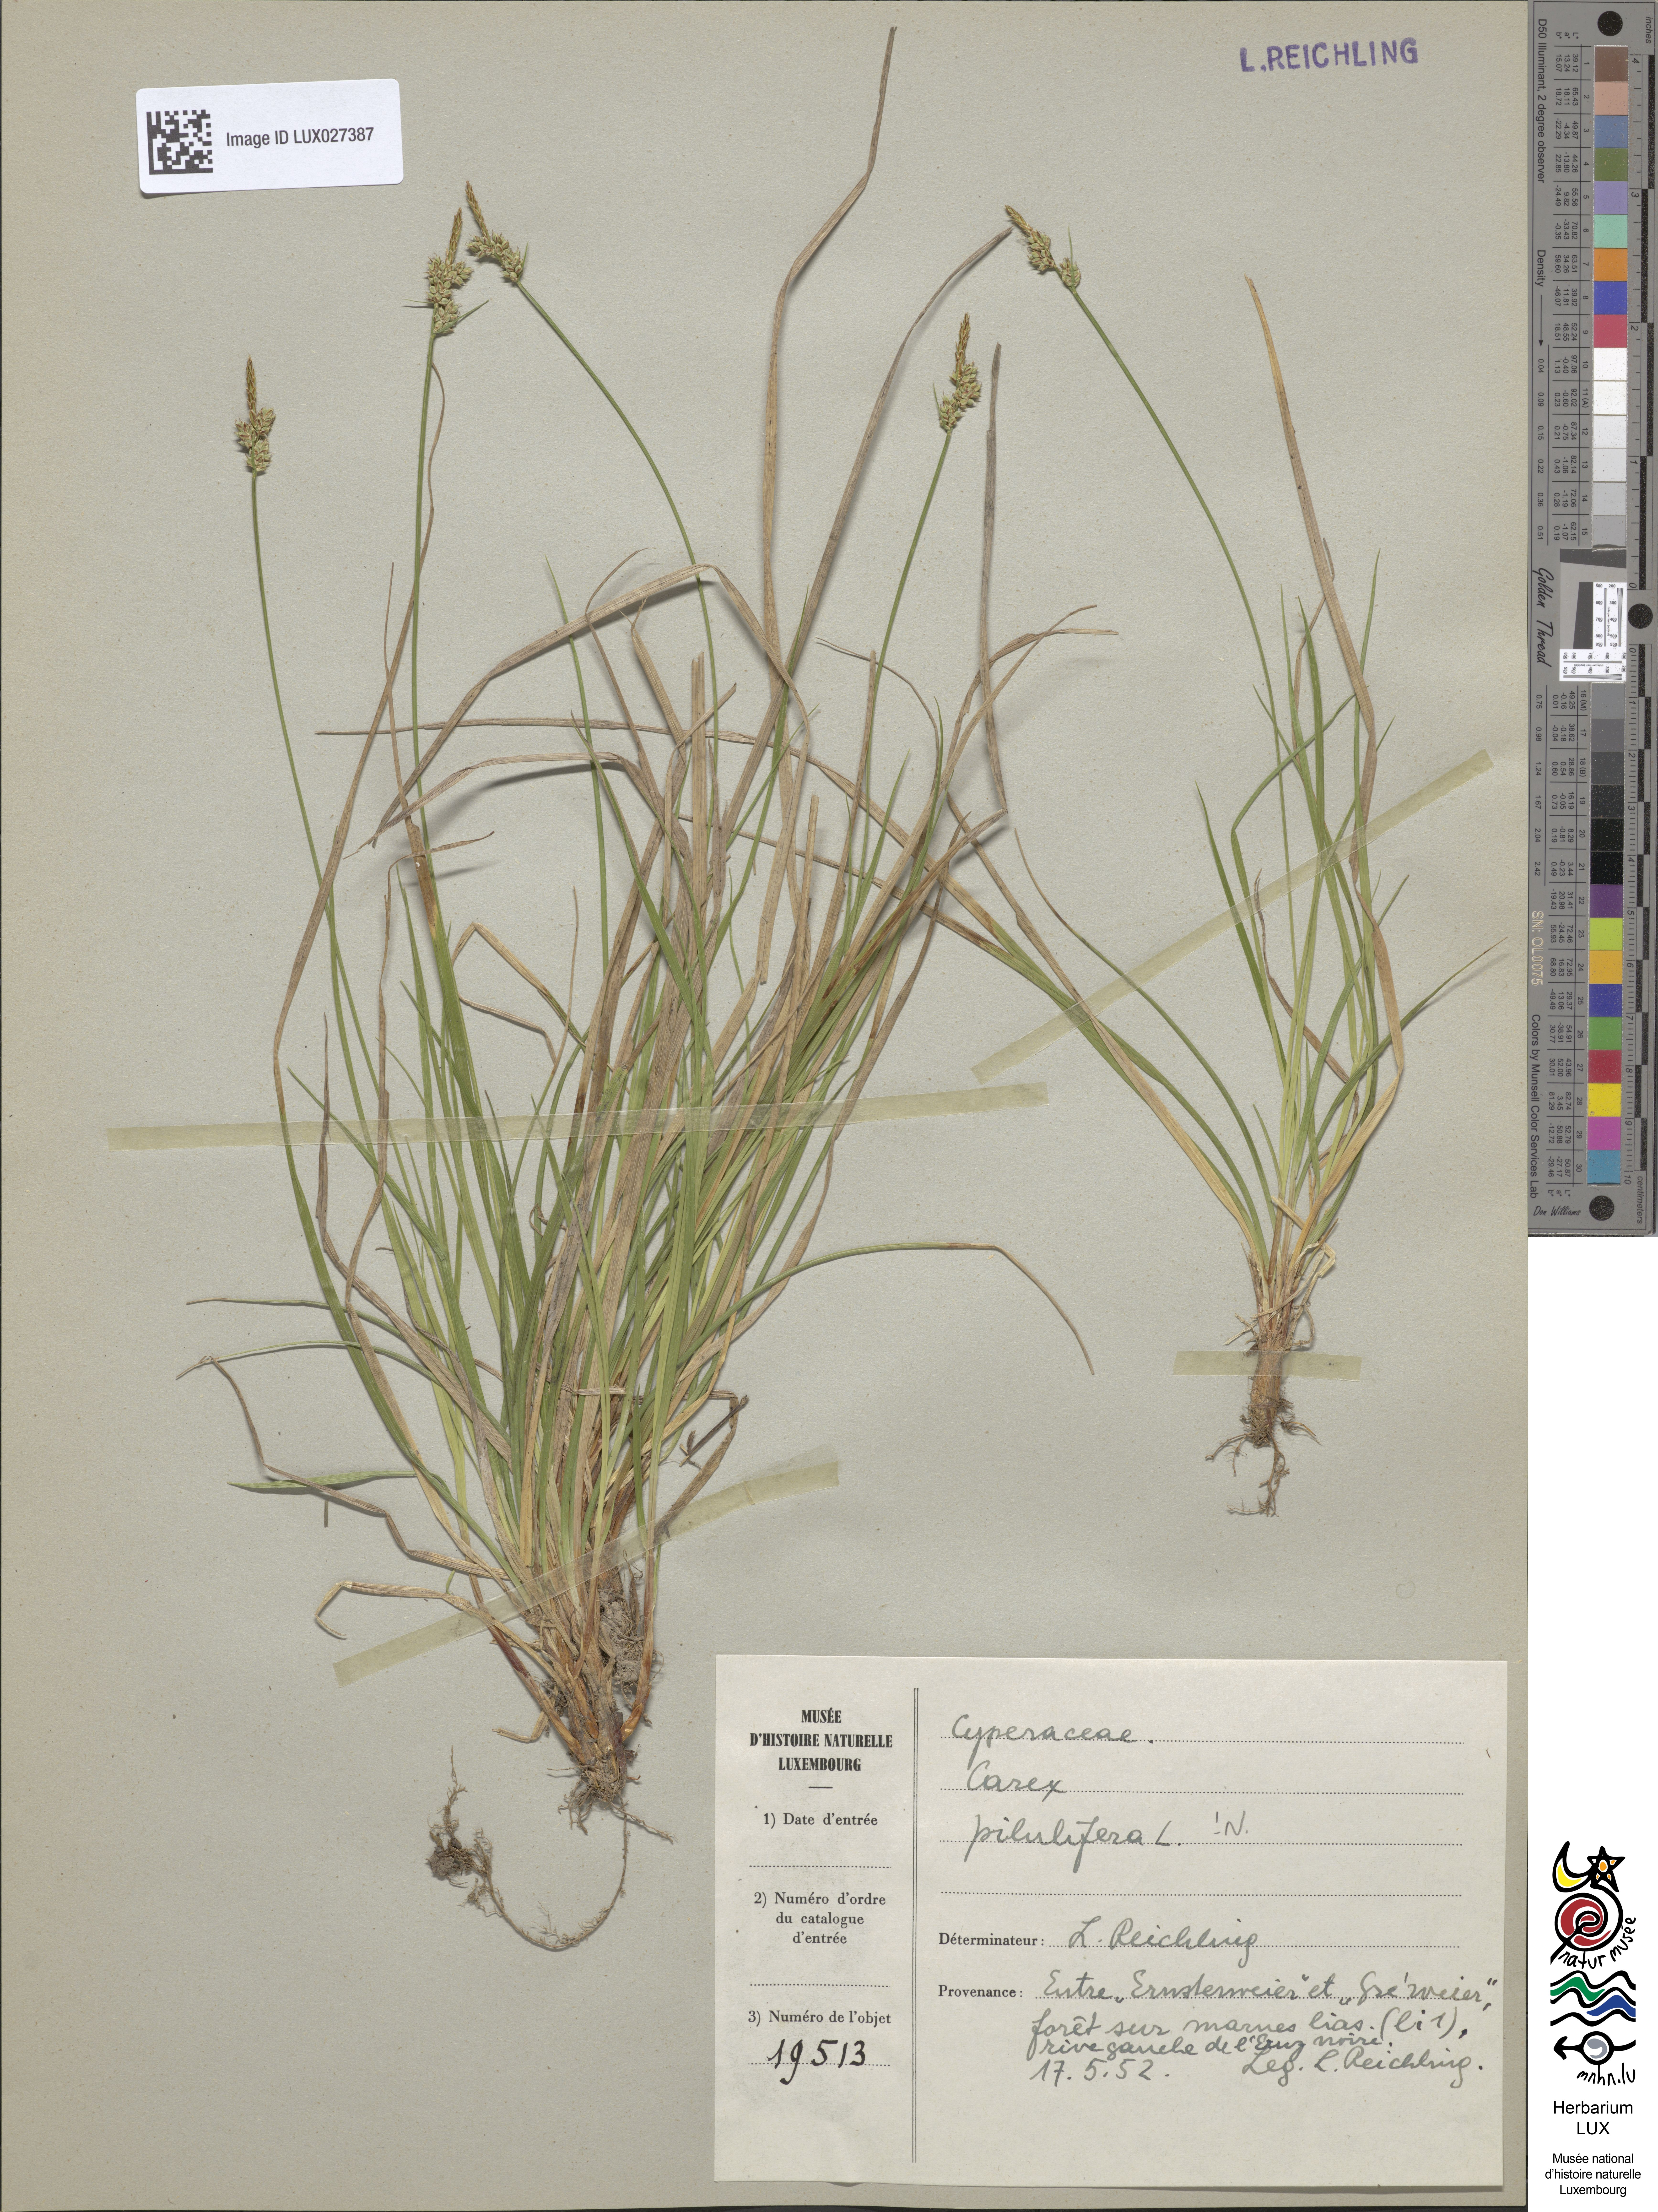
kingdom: Plantae
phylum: Tracheophyta
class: Liliopsida
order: Poales
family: Cyperaceae
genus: Carex
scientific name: Carex pilulifera
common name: Pill sedge
